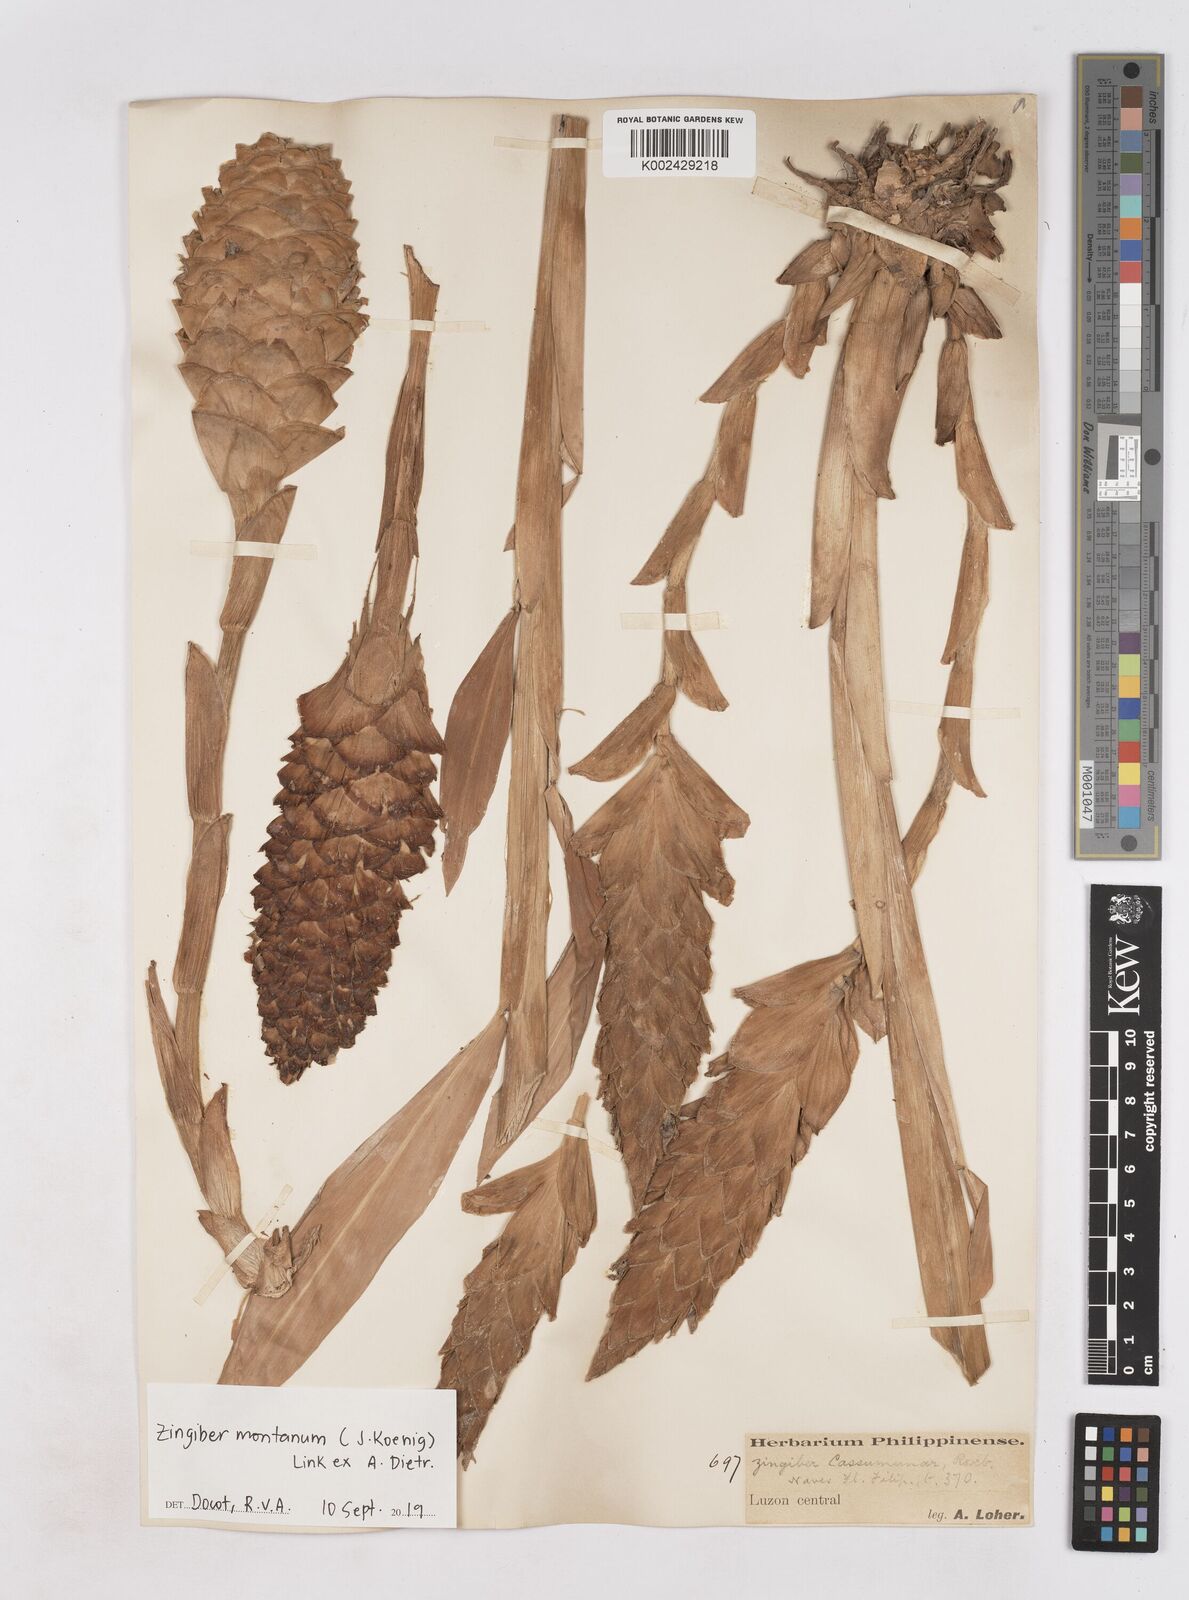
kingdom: Plantae
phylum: Tracheophyta
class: Liliopsida
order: Zingiberales
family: Zingiberaceae
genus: Zingiber
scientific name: Zingiber montanum
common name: Bengal ginger
